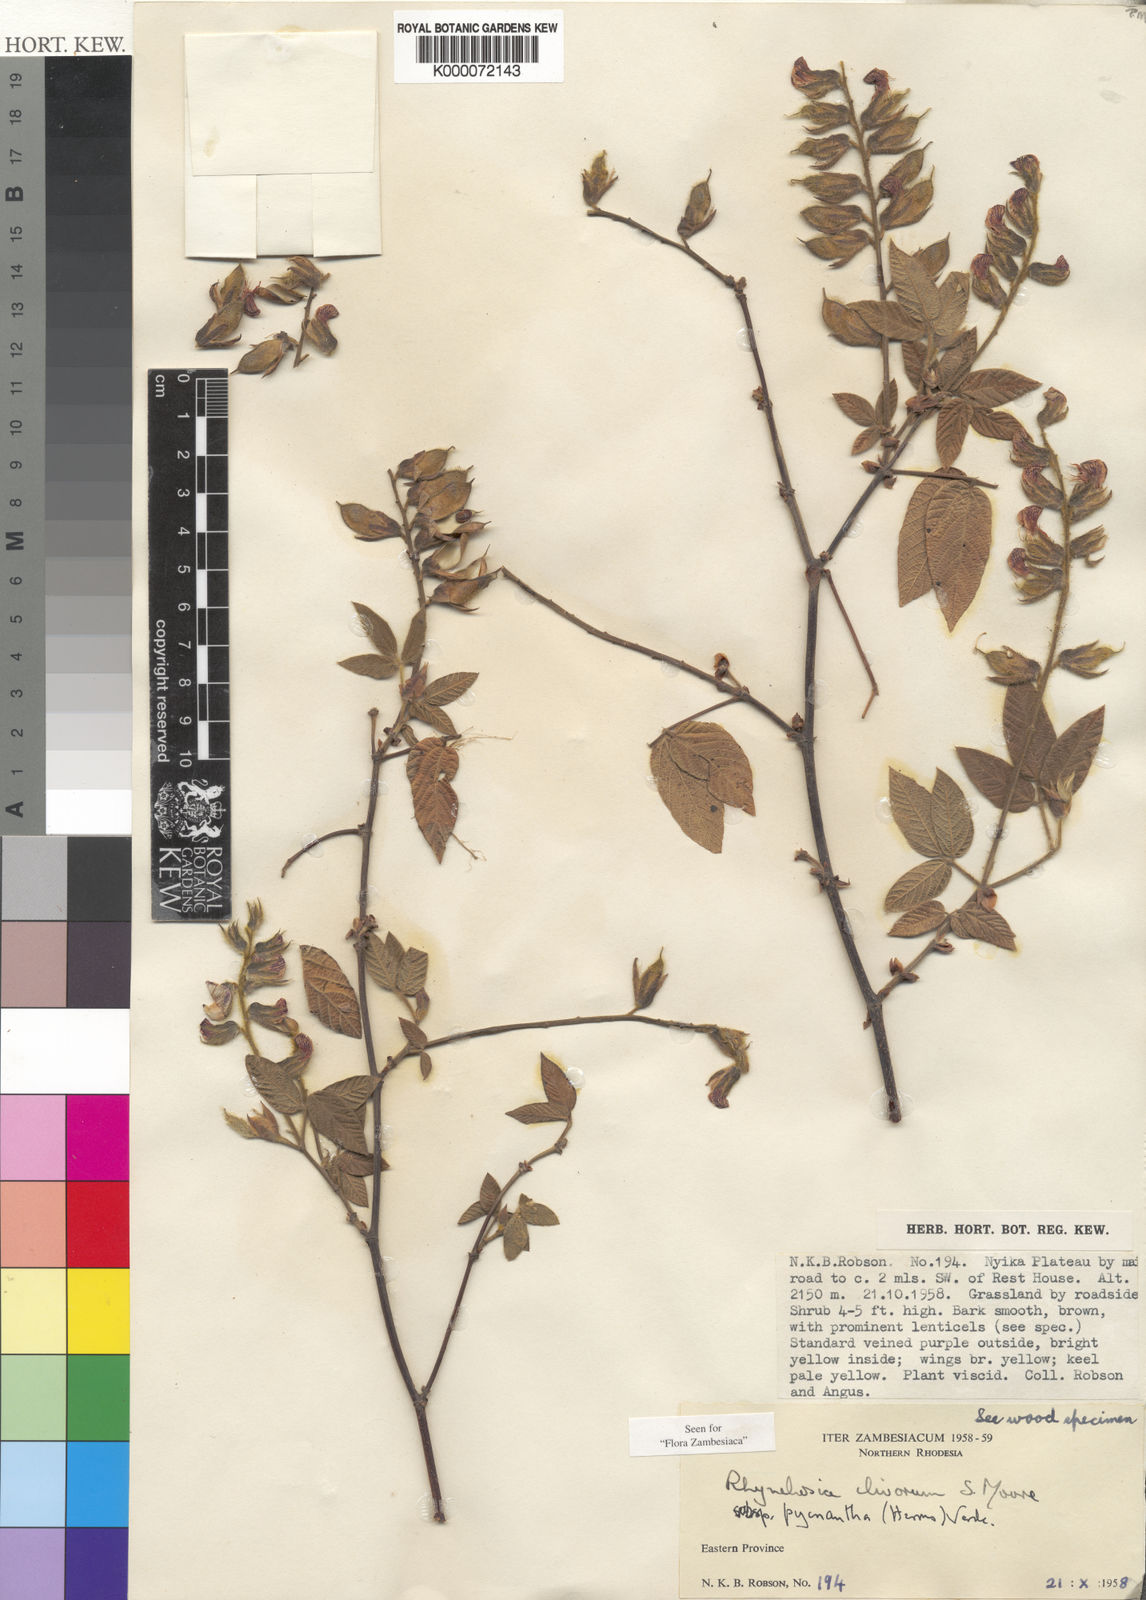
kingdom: Plantae
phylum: Tracheophyta
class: Magnoliopsida
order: Fabales
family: Fabaceae
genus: Rhynchosia
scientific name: Rhynchosia clivorum
